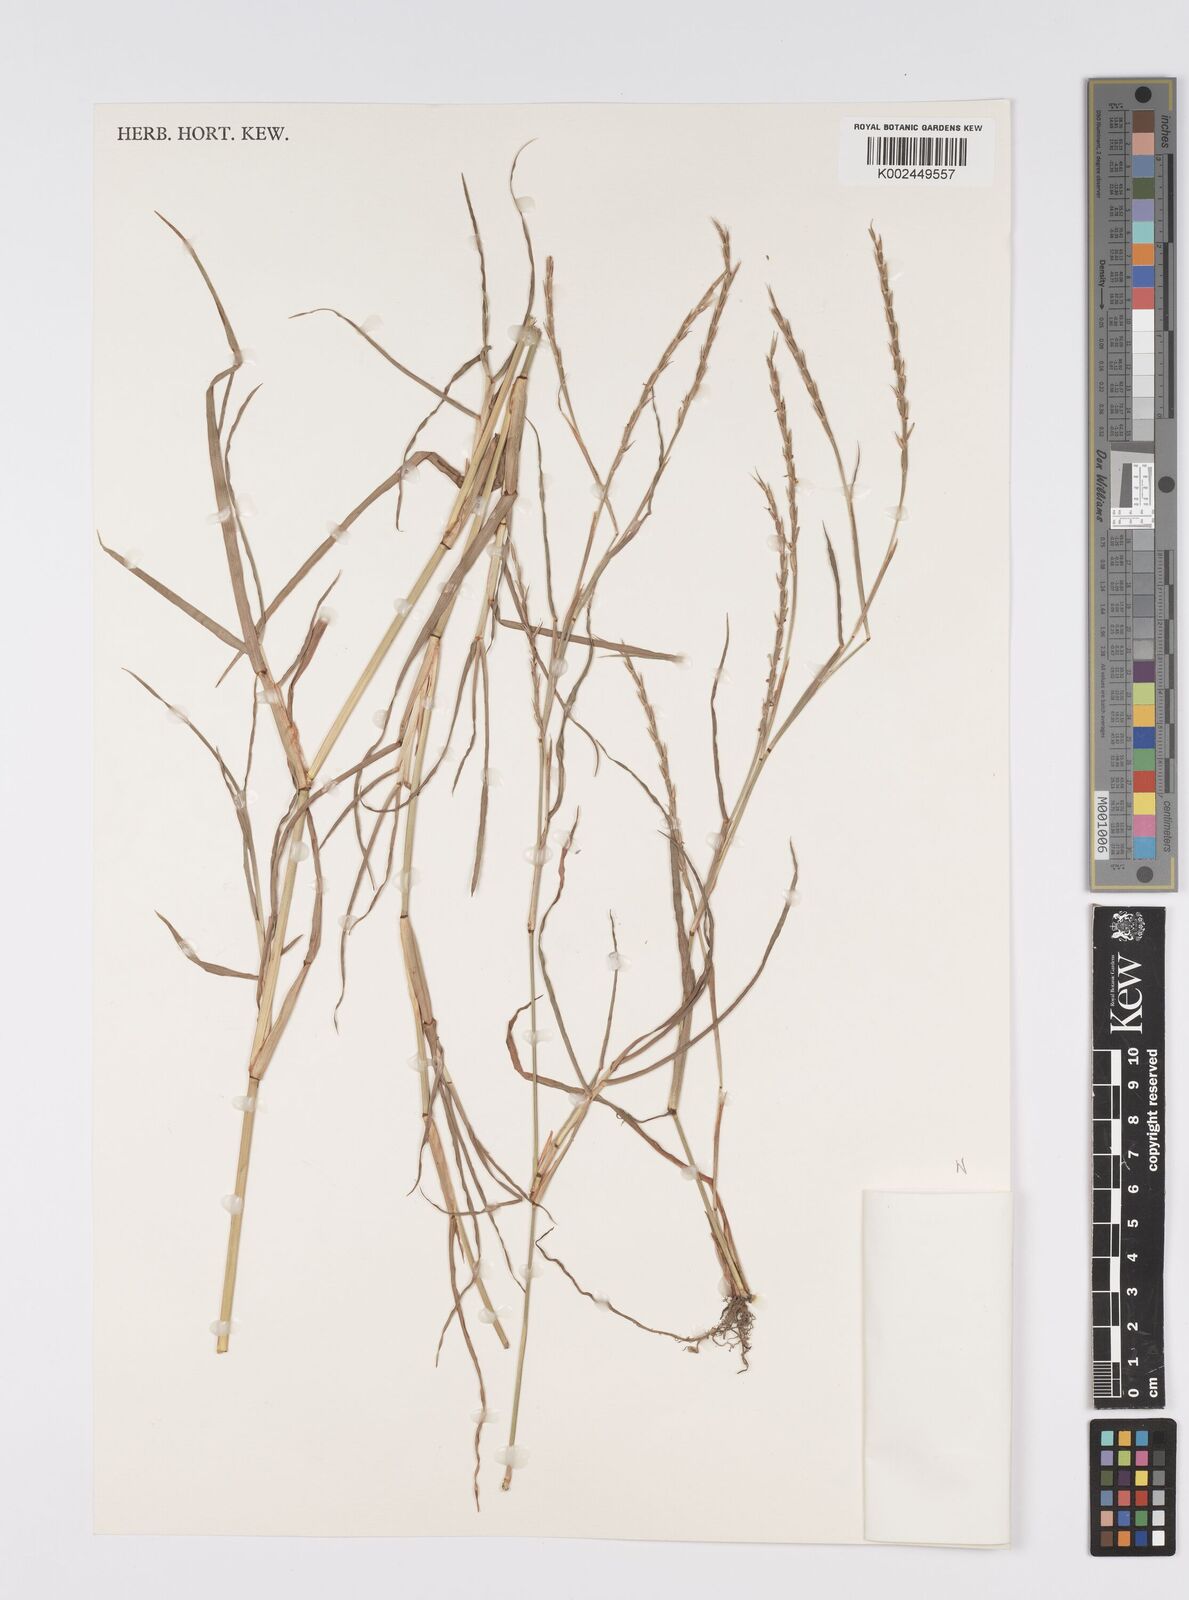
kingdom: Plantae
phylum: Tracheophyta
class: Liliopsida
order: Poales
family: Poaceae
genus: Hemarthria
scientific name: Hemarthria altissima
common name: African jointgrass
